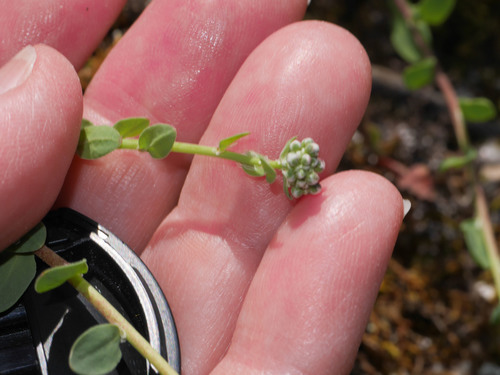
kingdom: Plantae
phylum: Tracheophyta
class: Magnoliopsida
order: Brassicales
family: Brassicaceae
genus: Noccaea
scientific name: Noccaea perfoliata
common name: Perfoliate pennycress
